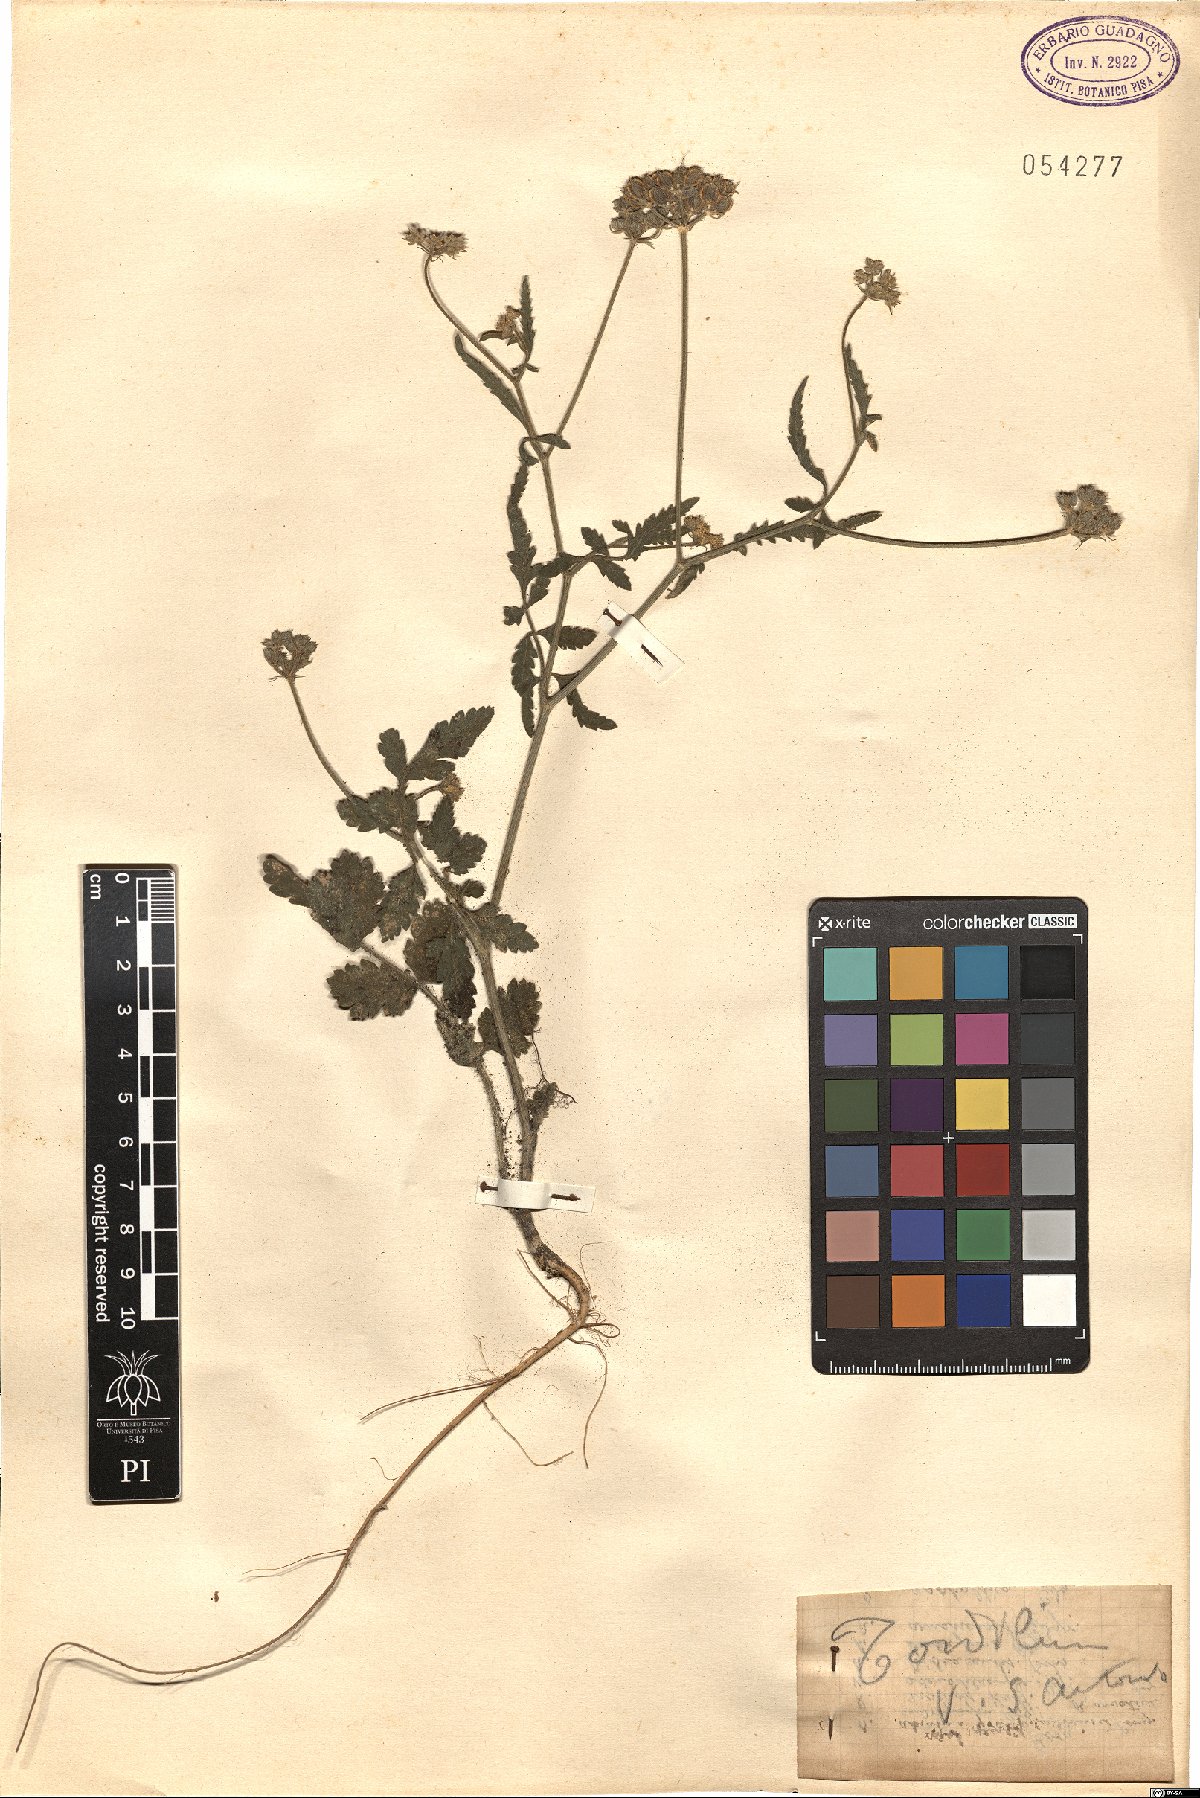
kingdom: Plantae
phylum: Tracheophyta
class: Magnoliopsida
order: Apiales
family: Apiaceae
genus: Tordylium
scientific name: Tordylium
